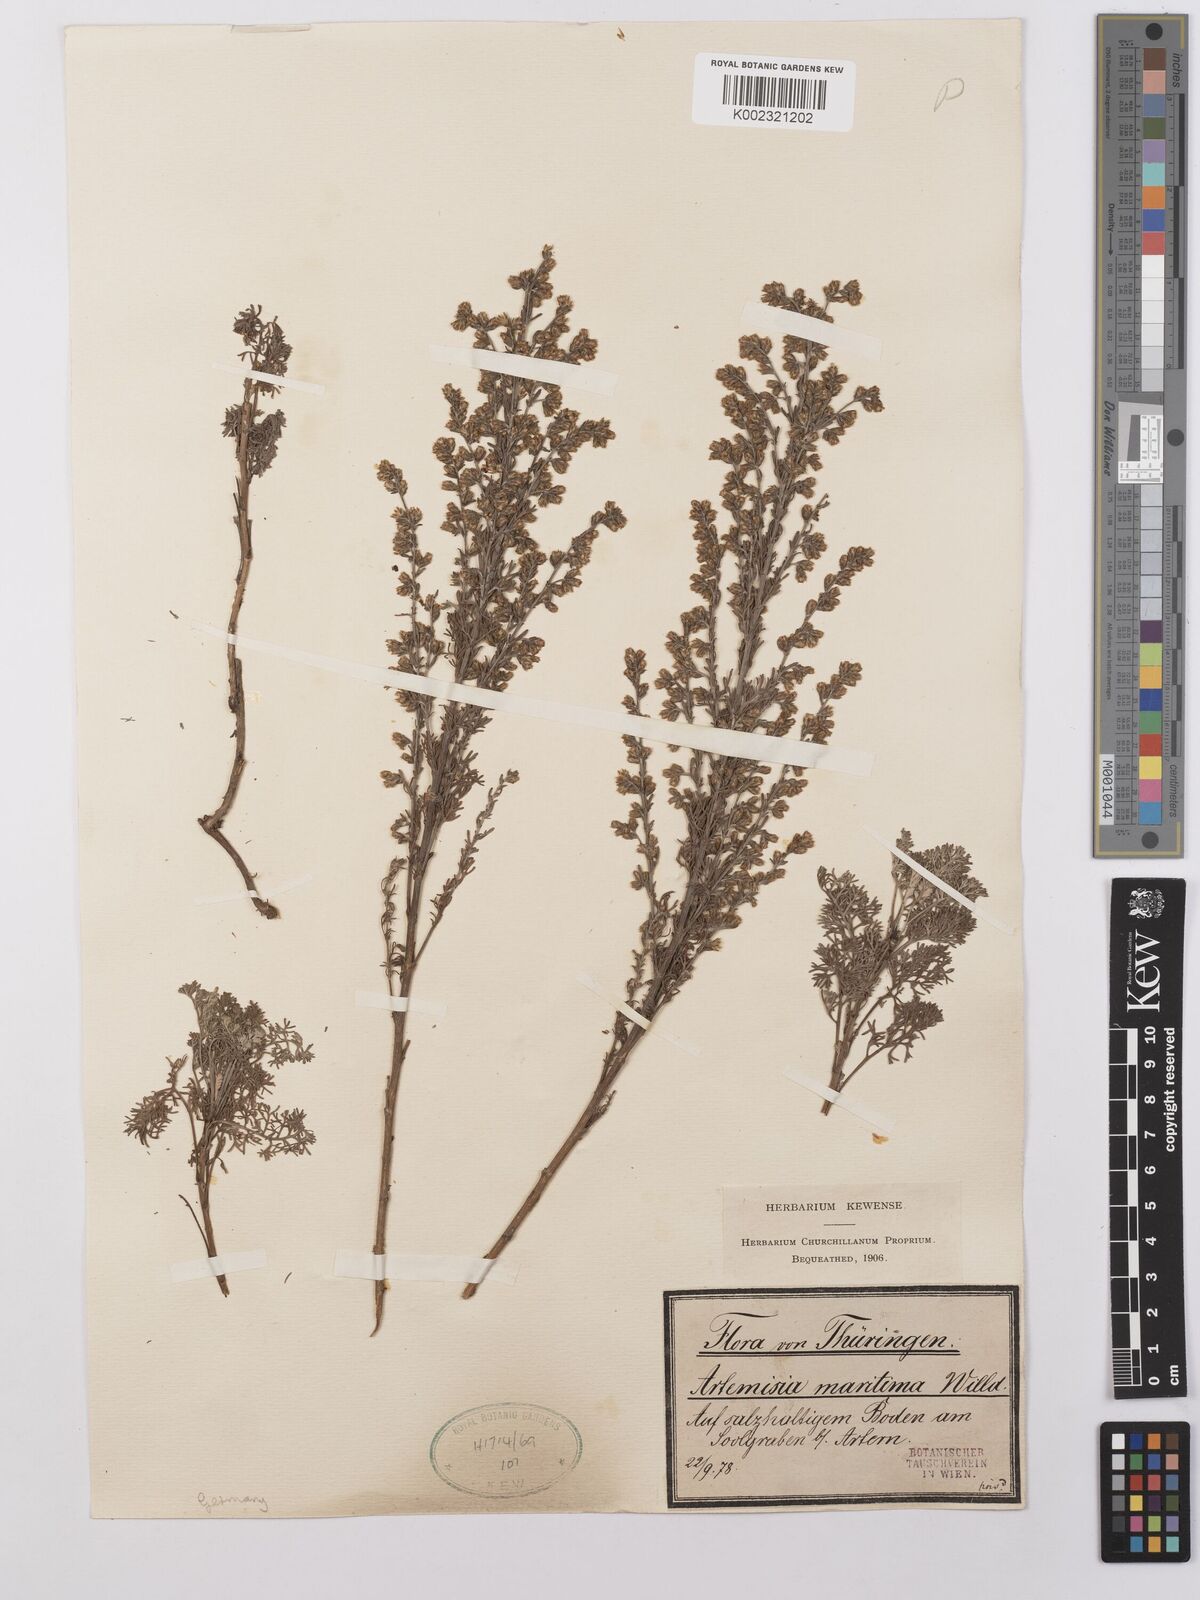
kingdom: Plantae
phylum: Tracheophyta
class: Magnoliopsida
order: Asterales
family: Asteraceae
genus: Artemisia
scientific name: Artemisia maritima
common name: Wormseed
